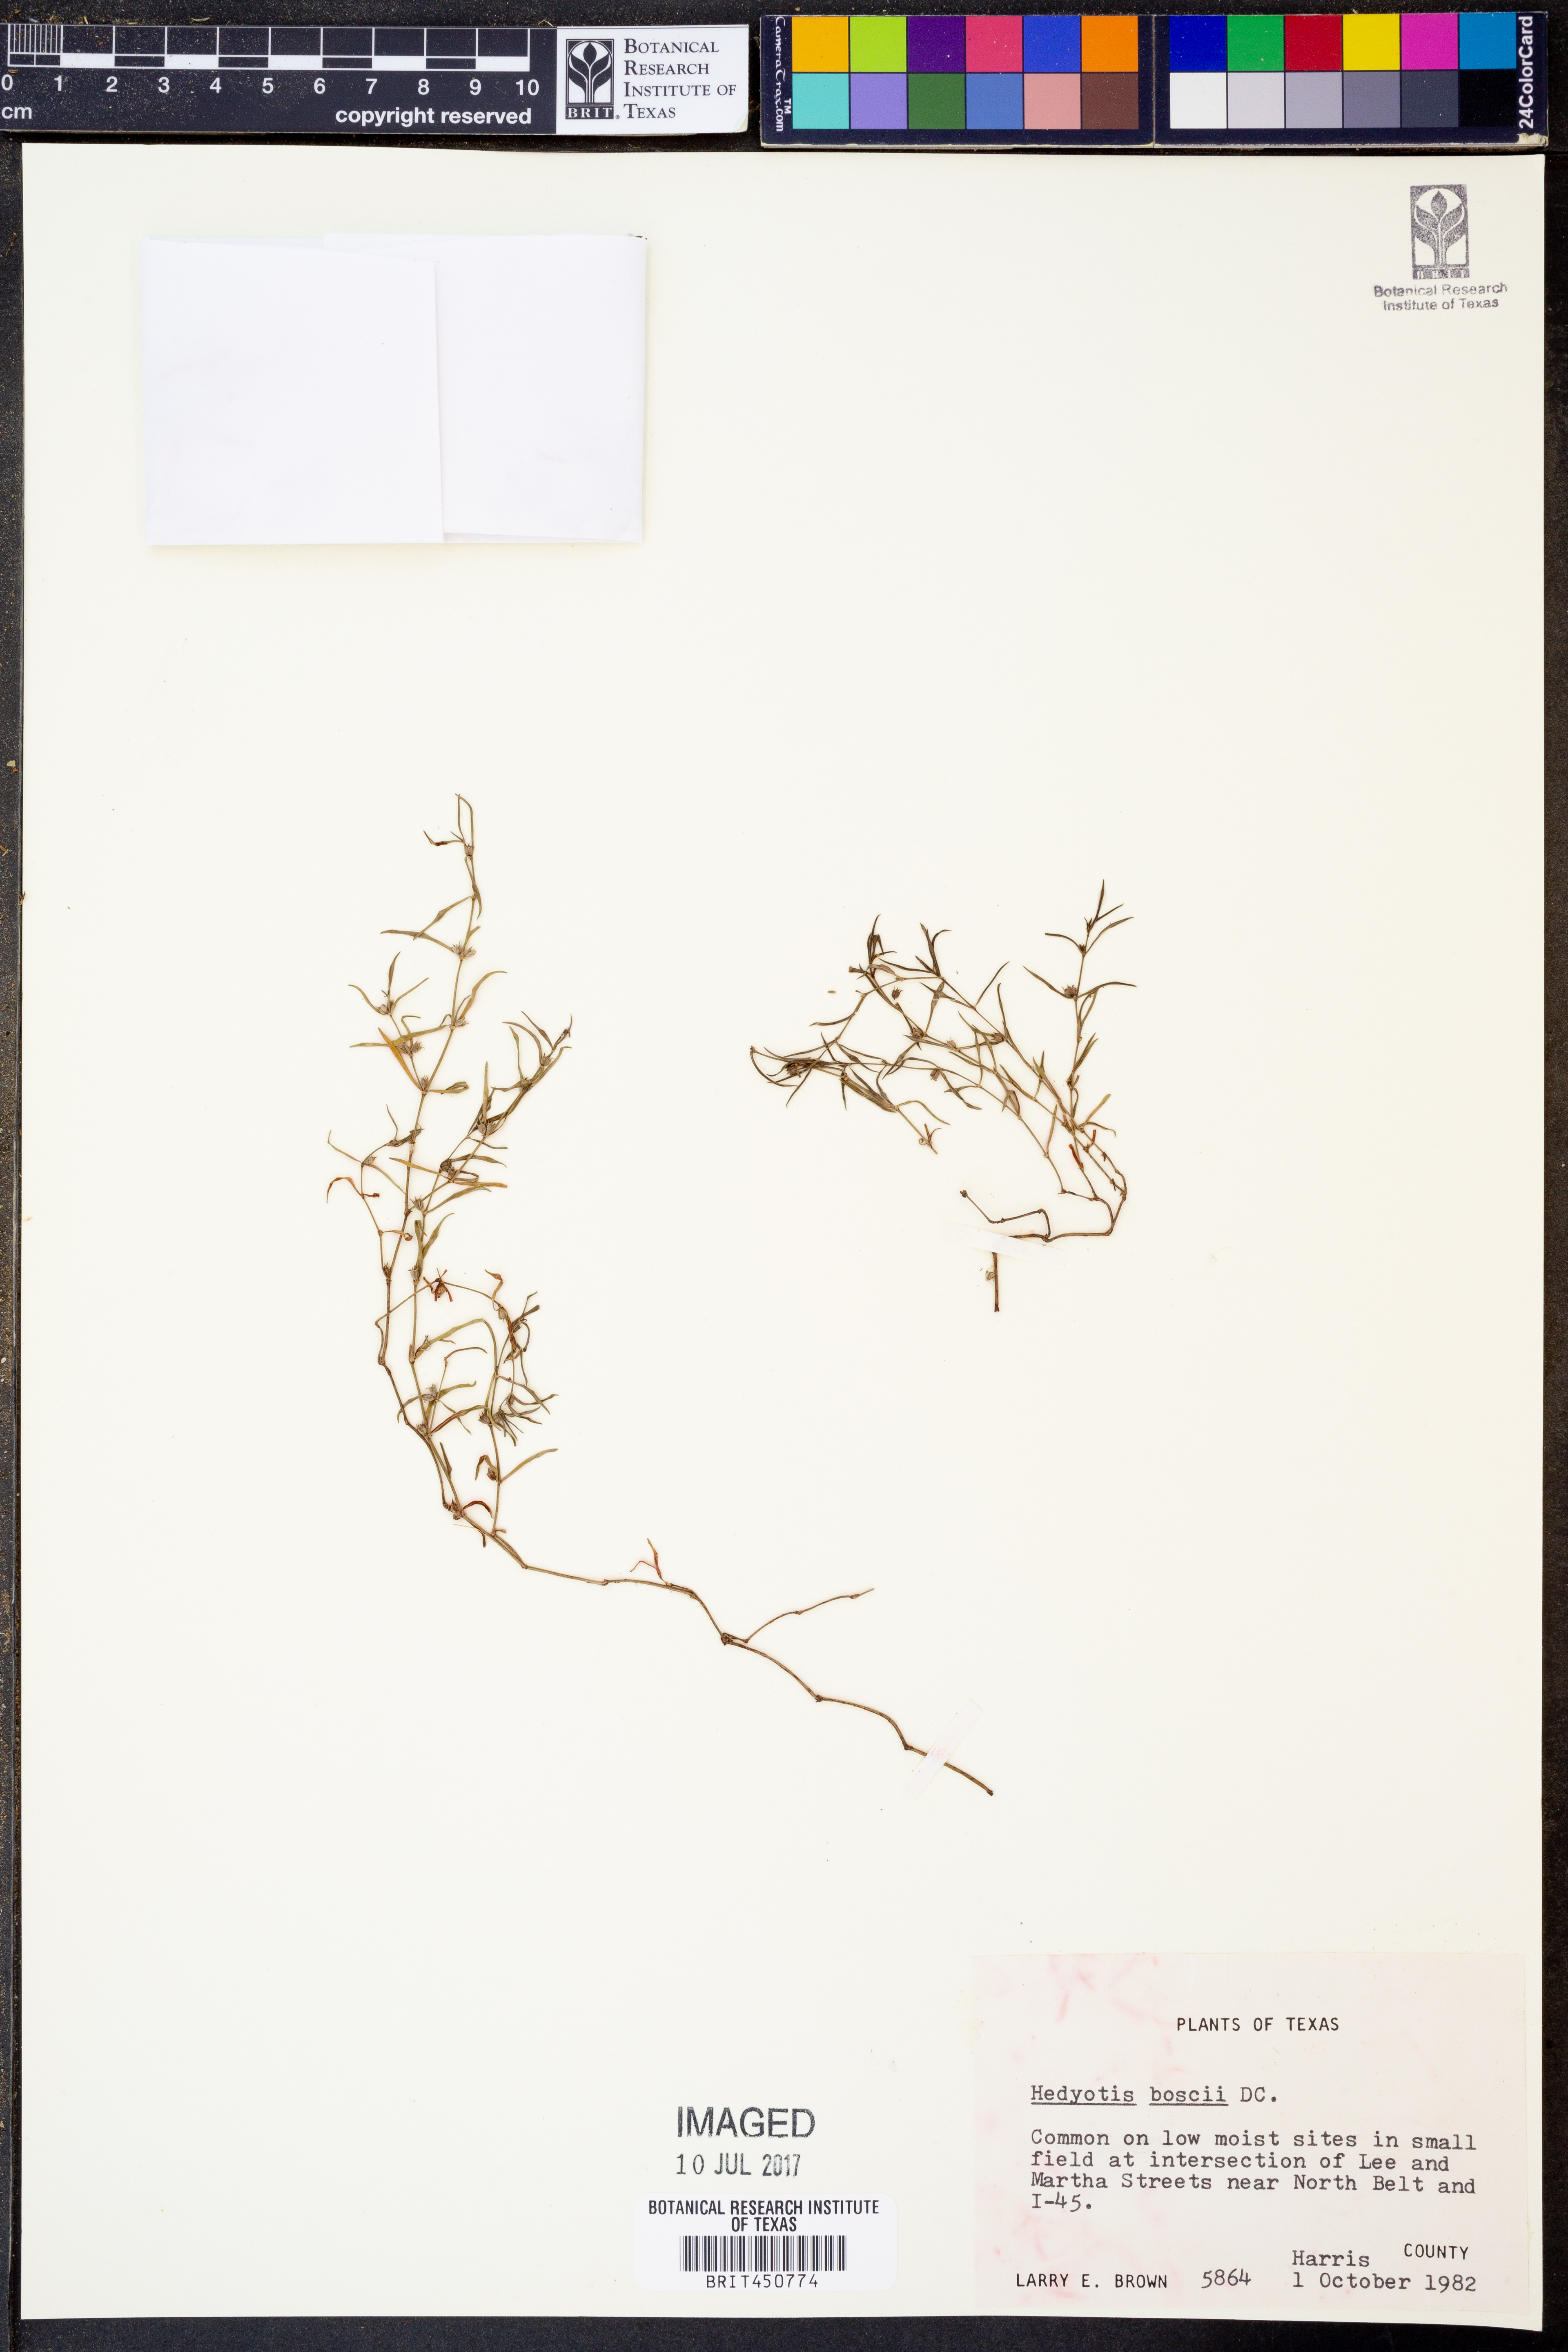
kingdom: Plantae
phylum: Tracheophyta
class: Magnoliopsida
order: Gentianales
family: Rubiaceae
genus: Oldenlandia
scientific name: Oldenlandia boscii
